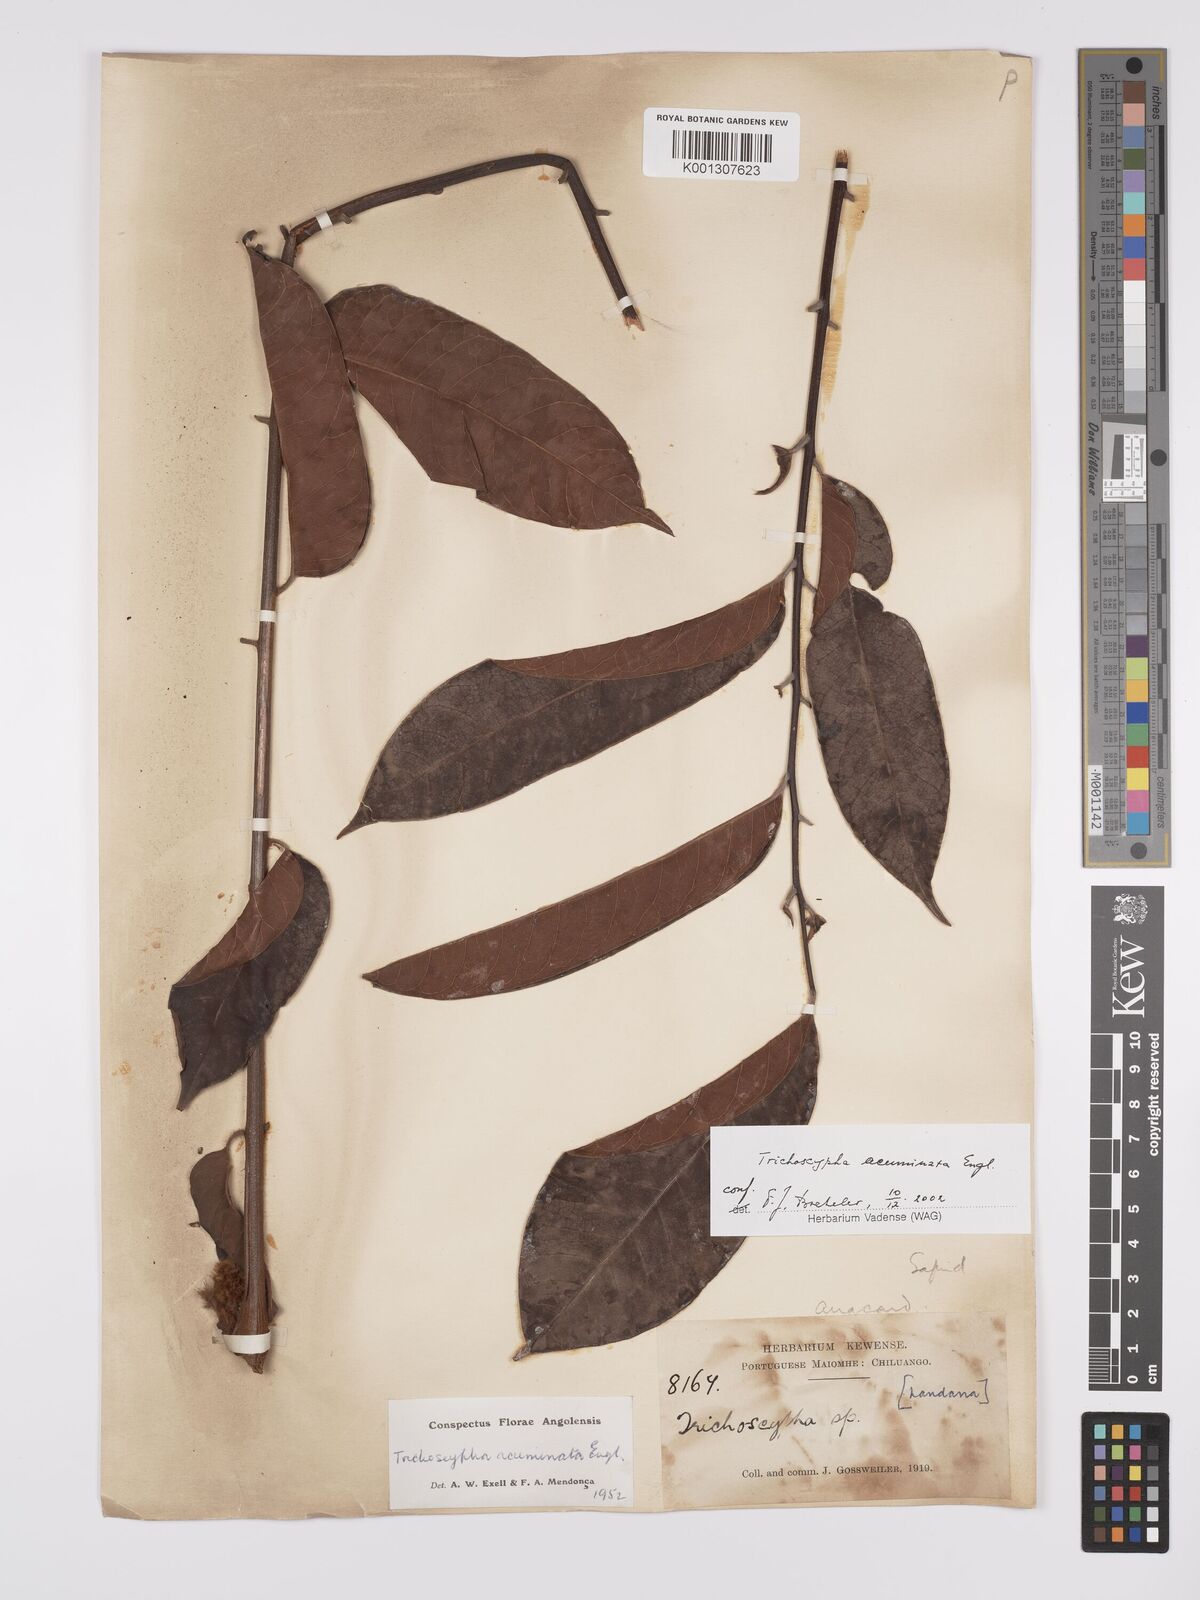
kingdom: Plantae
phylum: Tracheophyta
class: Magnoliopsida
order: Sapindales
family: Anacardiaceae
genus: Trichoscypha
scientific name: Trichoscypha acuminata
